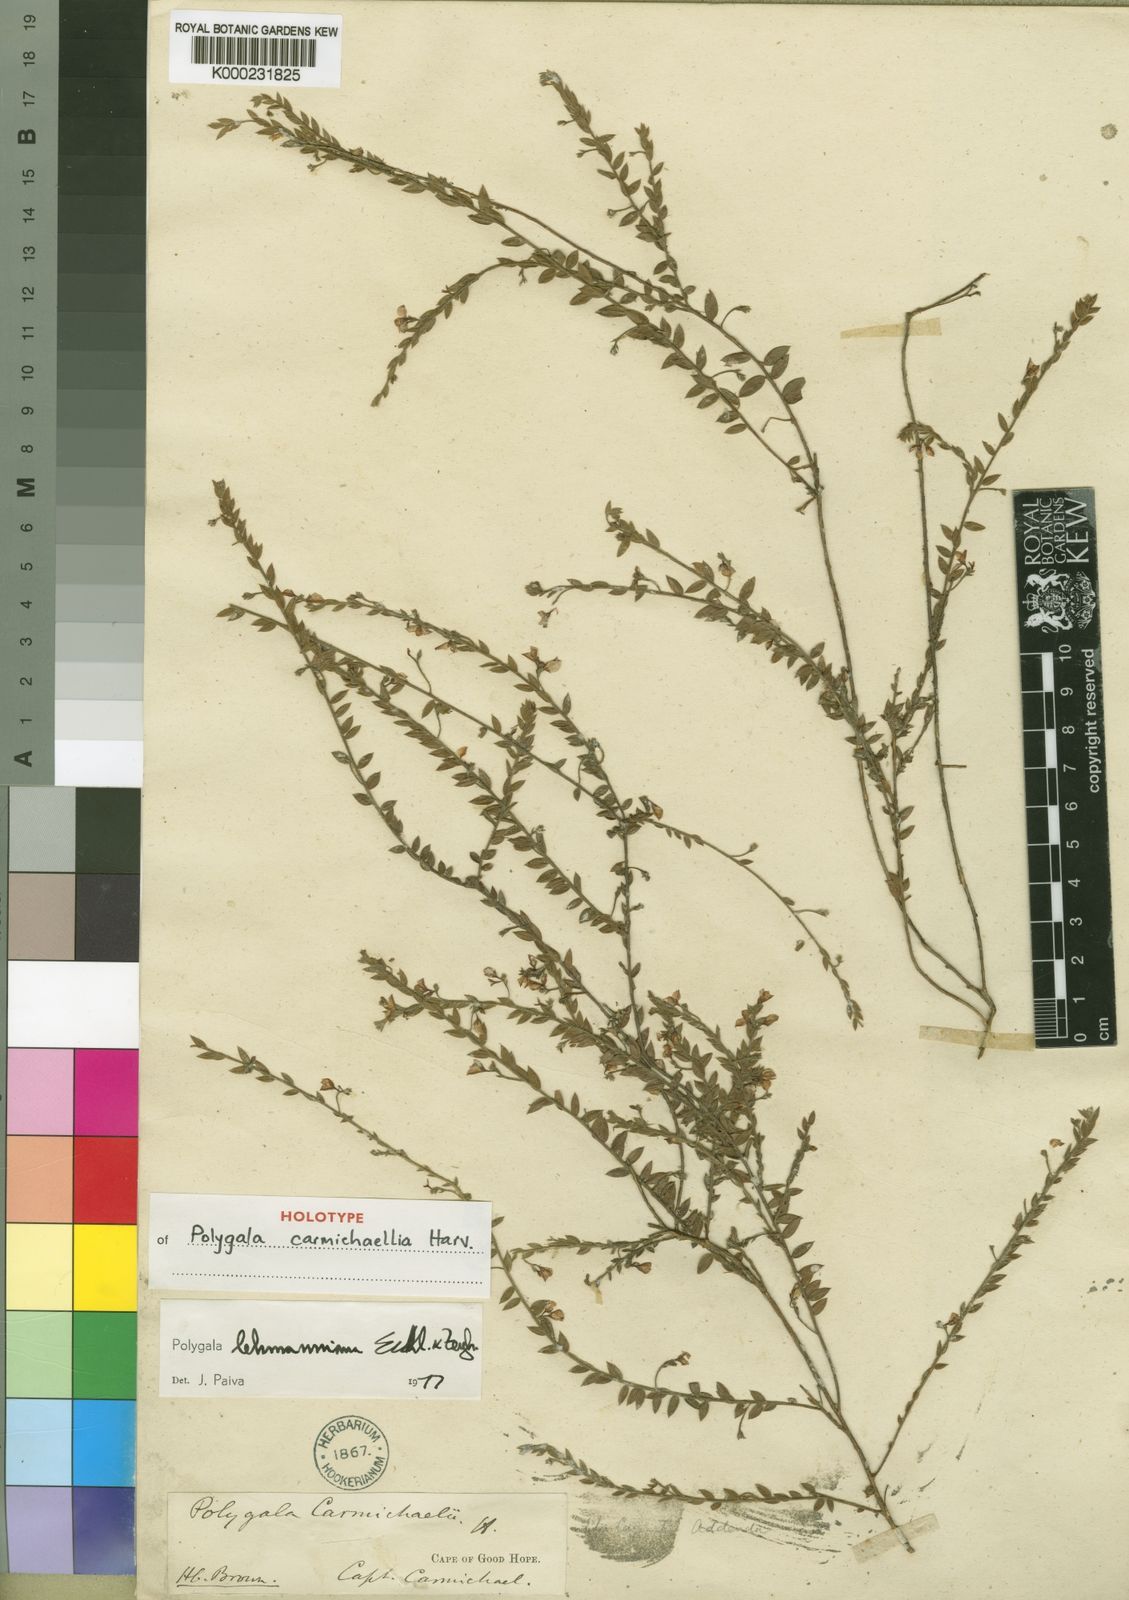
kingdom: Plantae
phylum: Tracheophyta
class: Magnoliopsida
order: Fabales
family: Polygalaceae
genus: Polygala
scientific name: Polygala lehmanniana
